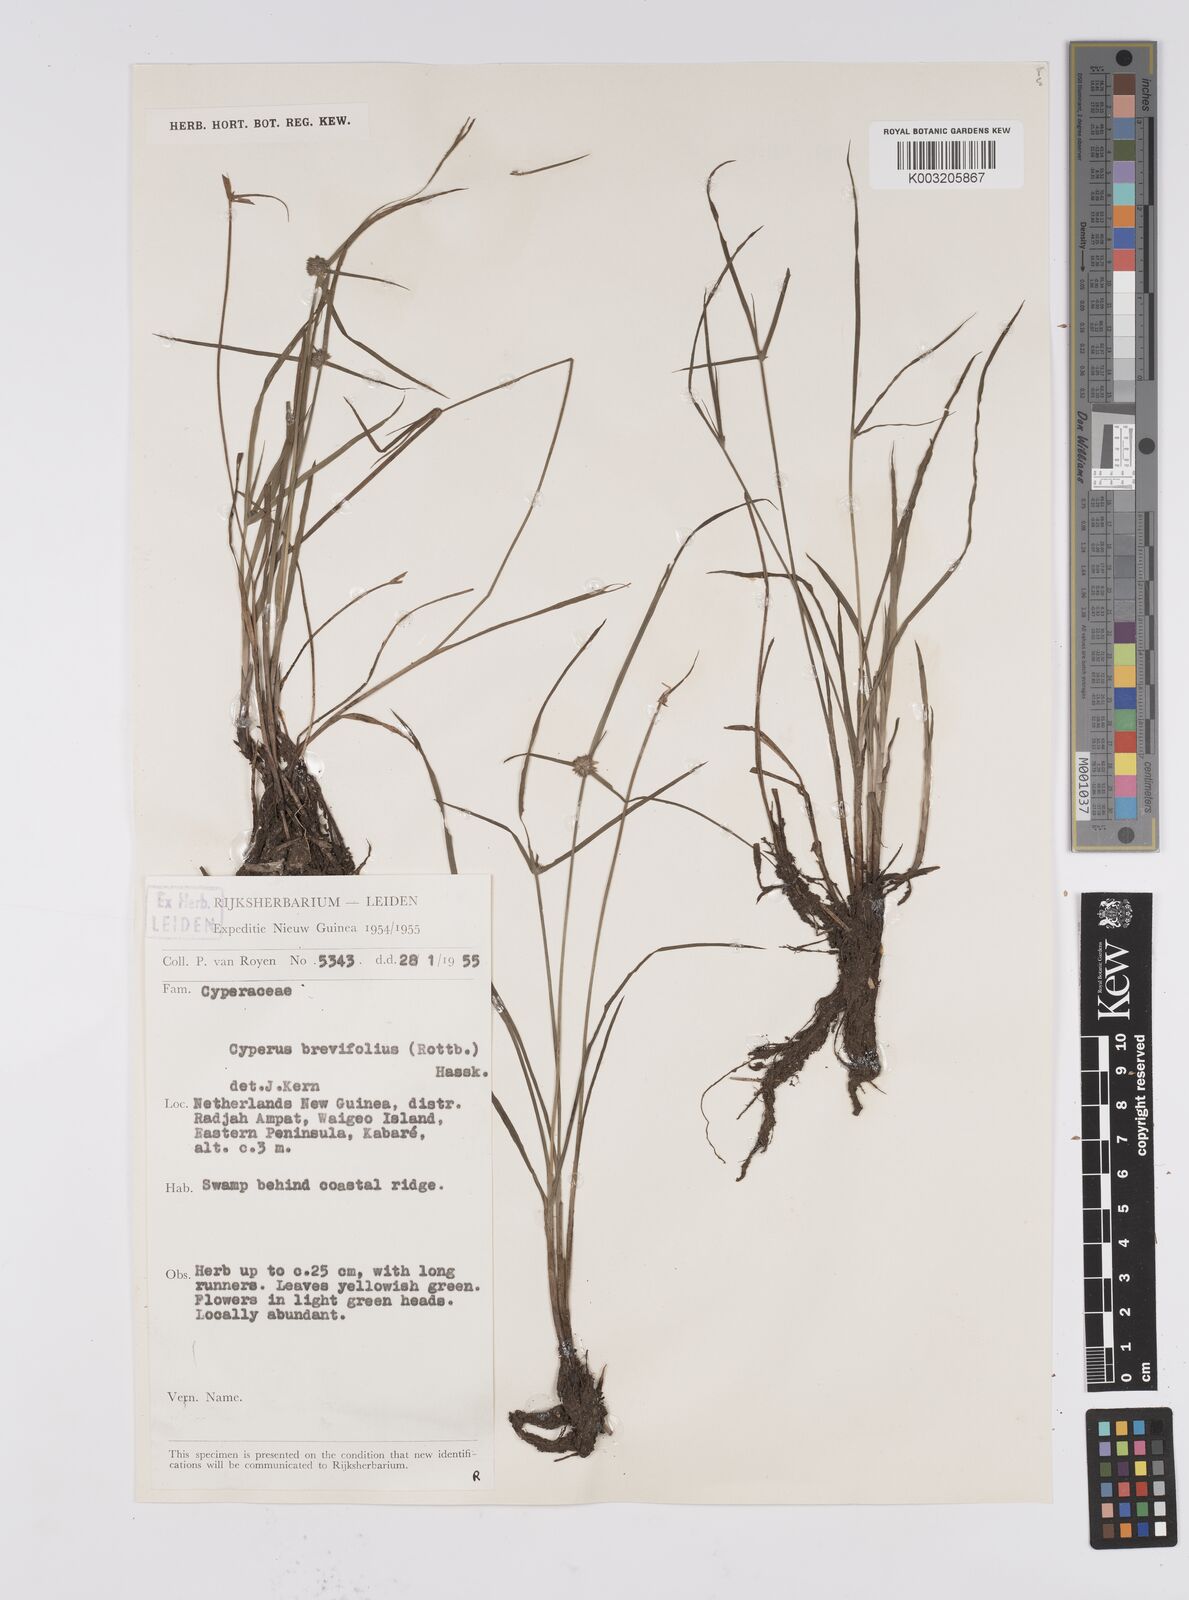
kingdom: Plantae
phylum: Tracheophyta
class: Liliopsida
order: Poales
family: Cyperaceae
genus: Cyperus
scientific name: Cyperus brevifolius
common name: Globe kyllinga
